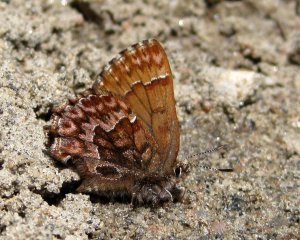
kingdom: Animalia
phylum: Arthropoda
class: Insecta
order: Lepidoptera
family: Lycaenidae
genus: Incisalia
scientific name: Incisalia eryphon
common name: Western Pine Elfin
